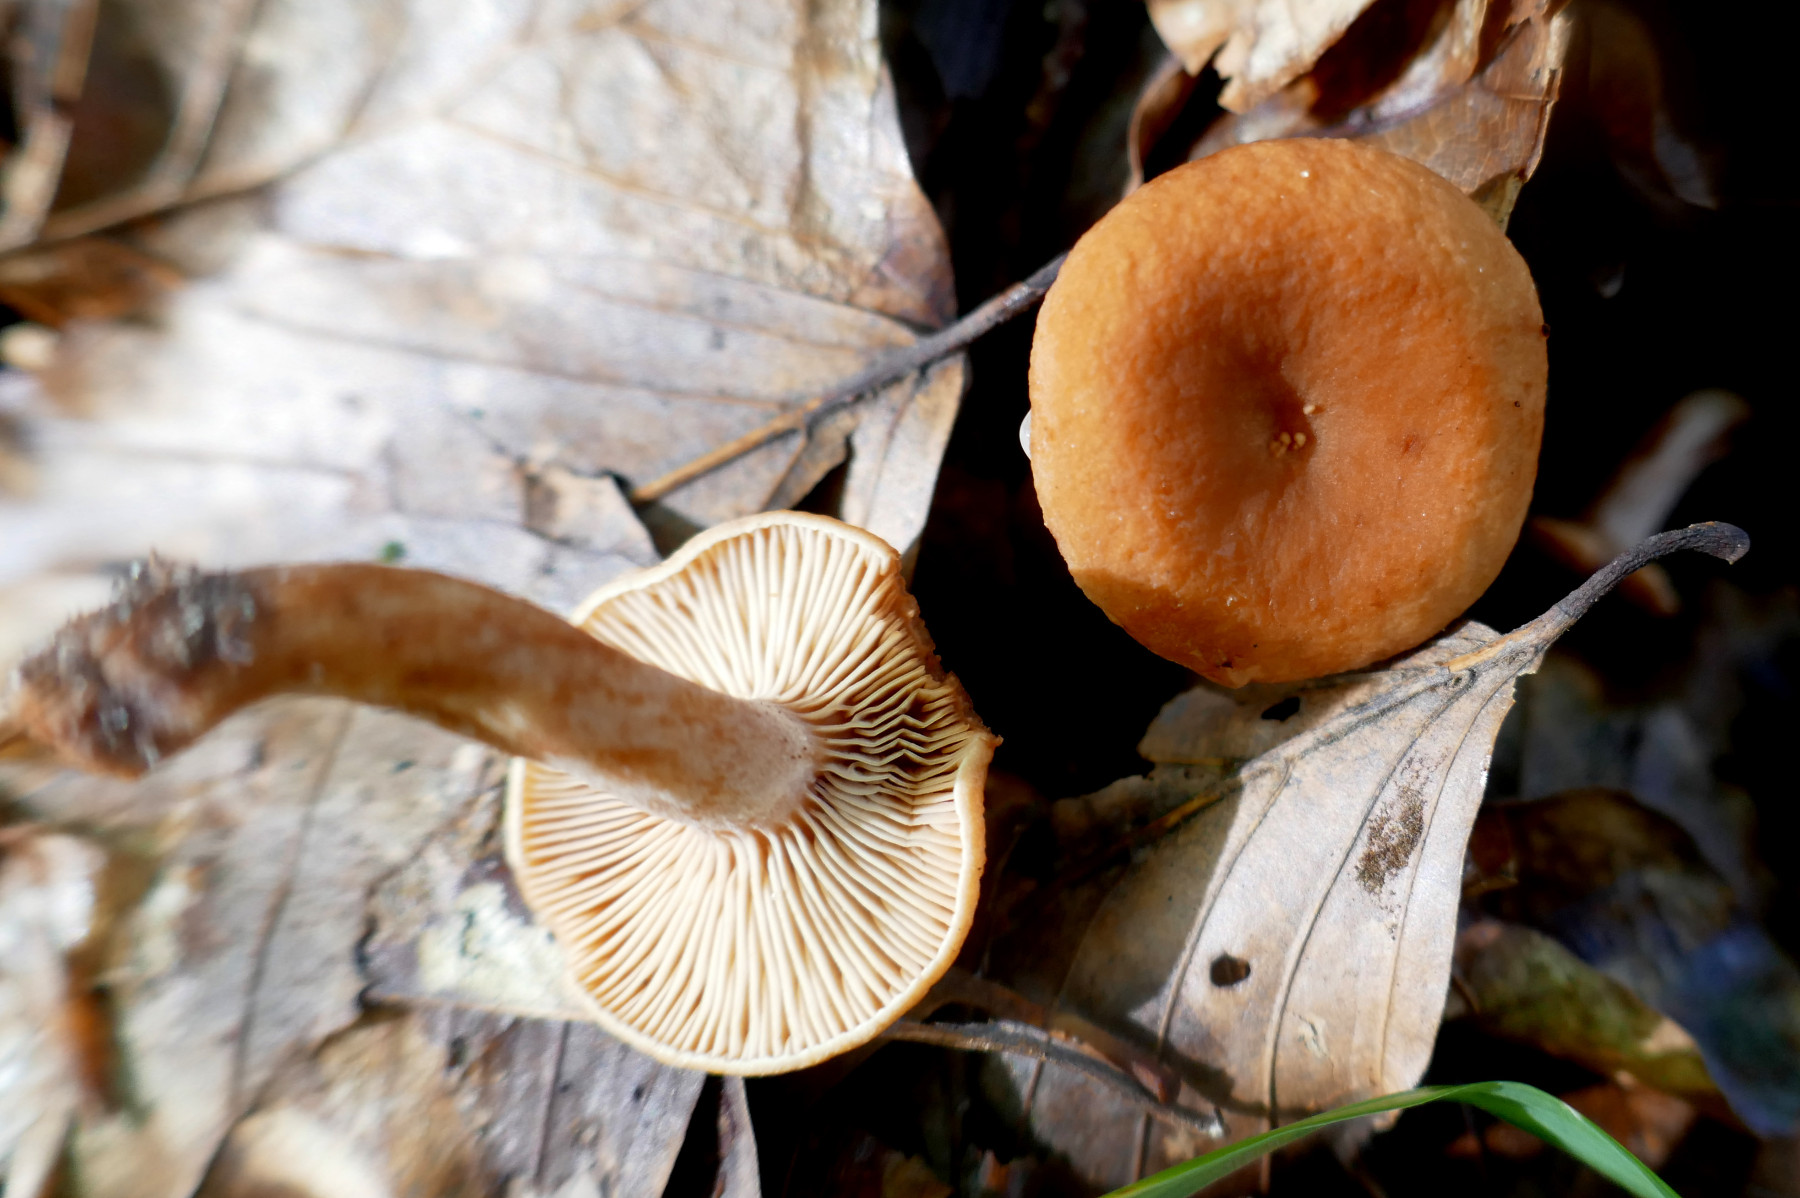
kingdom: Fungi
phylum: Basidiomycota
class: Agaricomycetes
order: Russulales
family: Russulaceae
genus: Lactarius
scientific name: Lactarius rostratus
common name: nubret mælkehat
